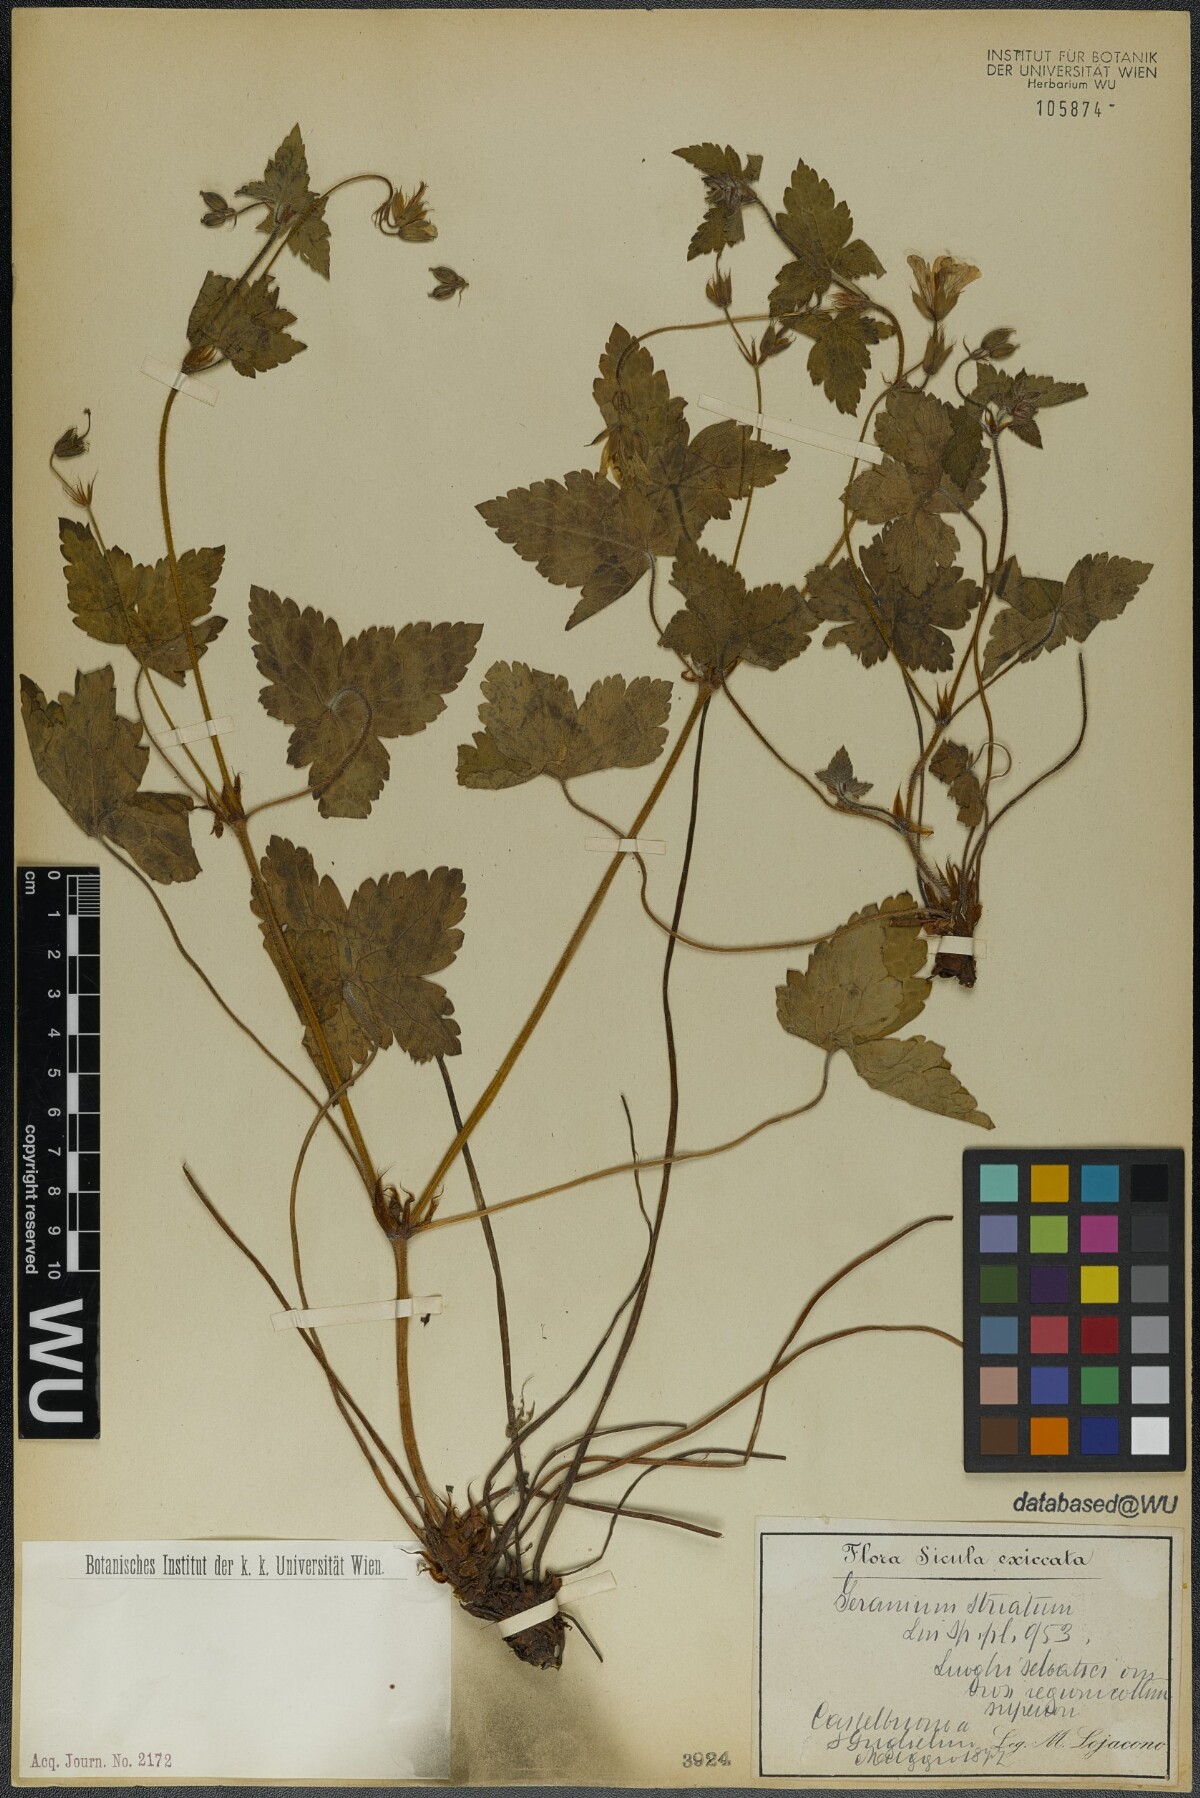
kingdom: Plantae
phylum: Tracheophyta
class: Magnoliopsida
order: Geraniales
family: Geraniaceae
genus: Geranium
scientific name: Geranium versicolor
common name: Pencilled crane's-bill
